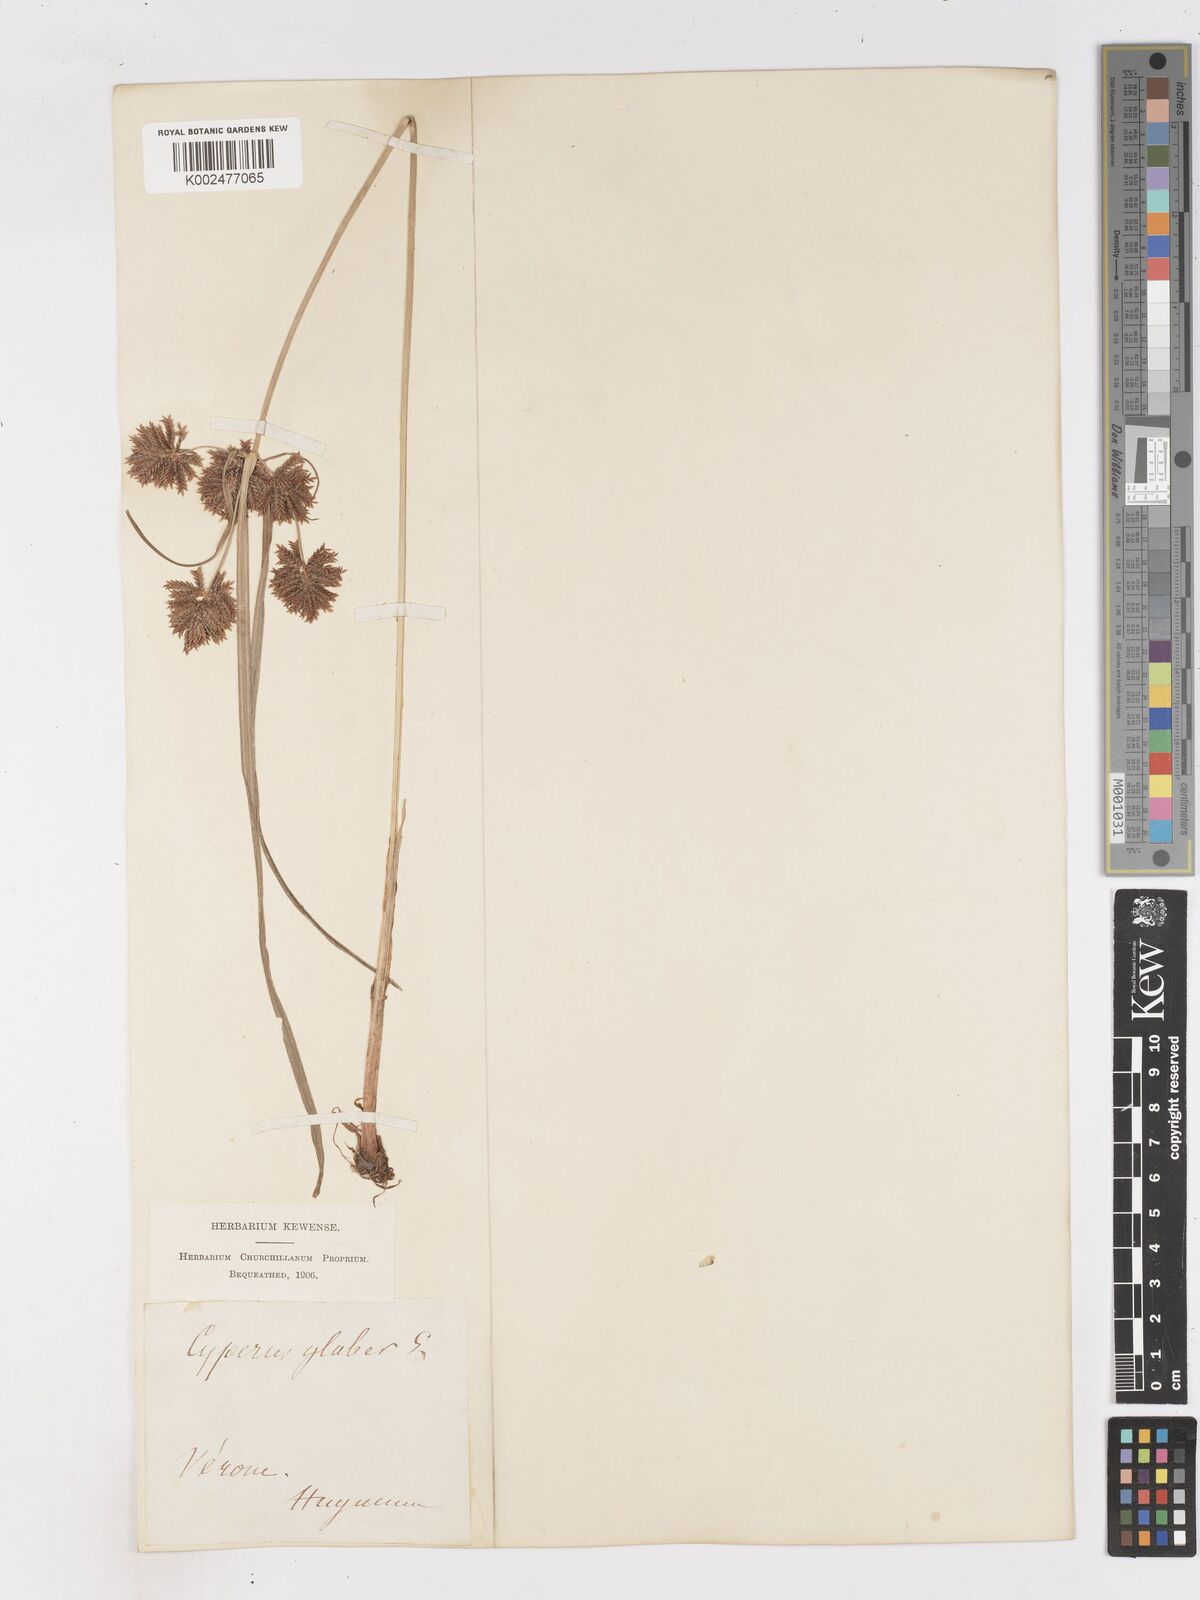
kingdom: Plantae
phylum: Tracheophyta
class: Liliopsida
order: Poales
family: Cyperaceae
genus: Cyperus
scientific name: Cyperus glaber
